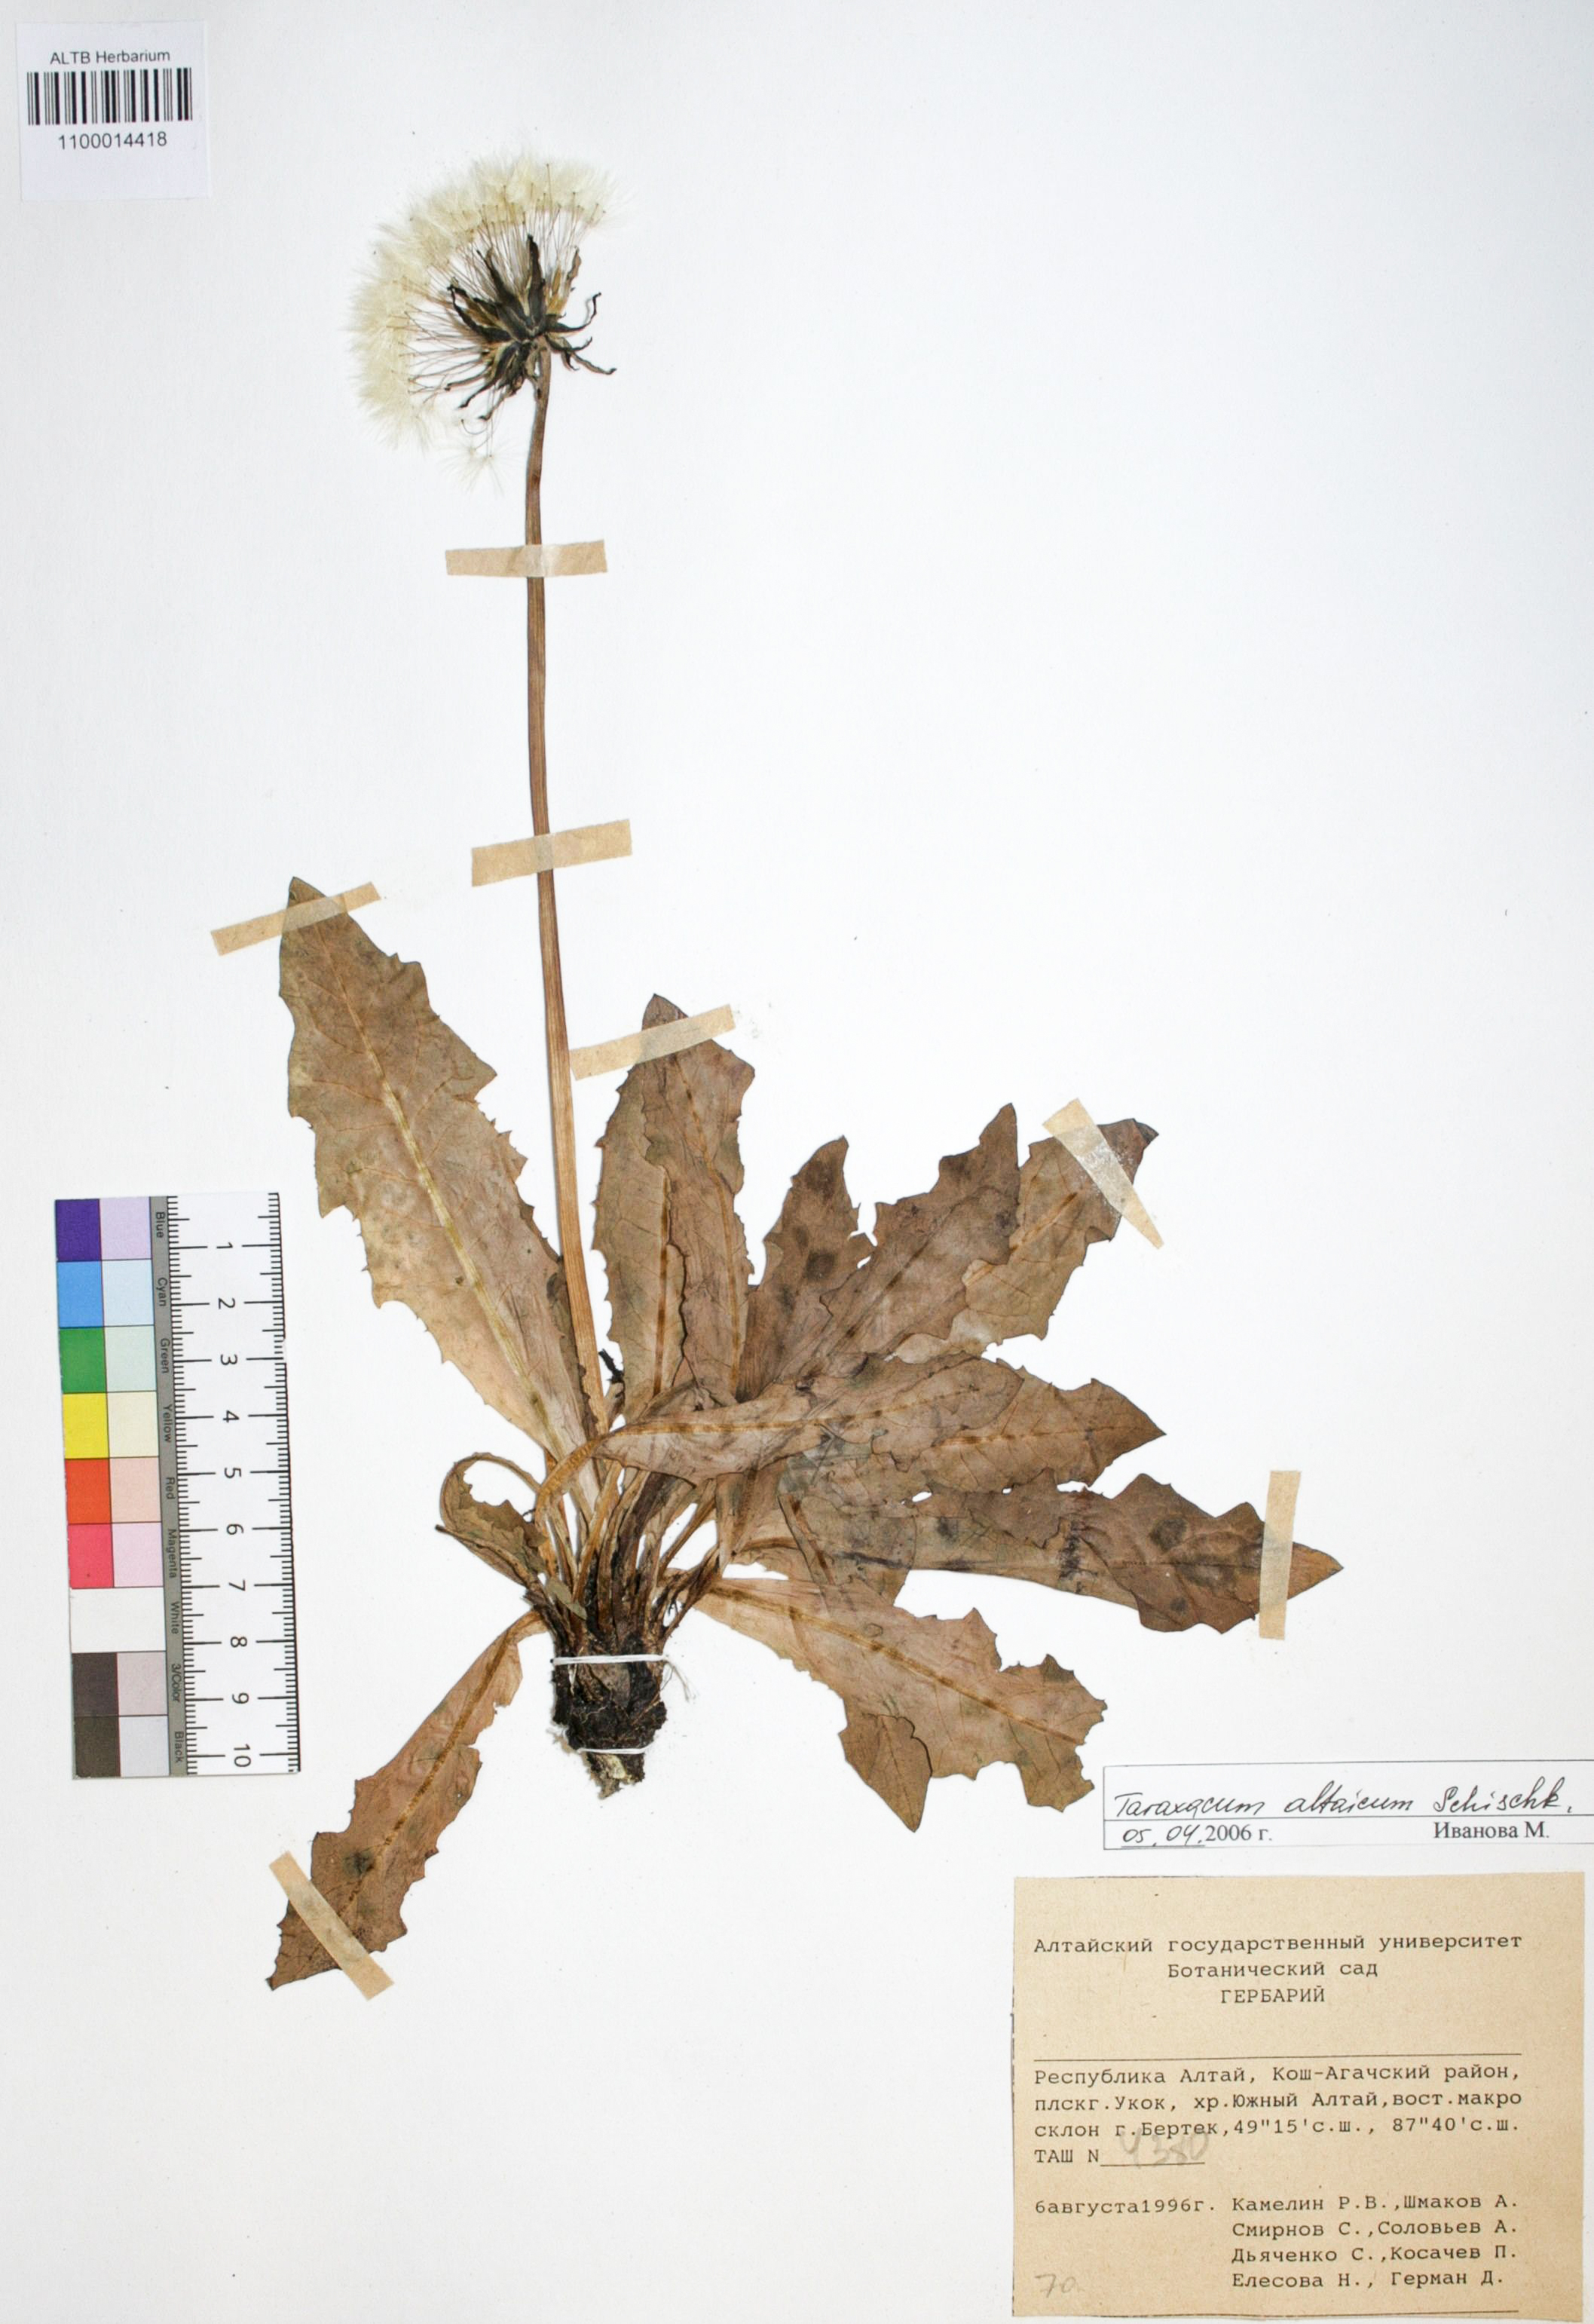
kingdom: Plantae
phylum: Tracheophyta
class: Magnoliopsida
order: Asterales
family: Asteraceae
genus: Taraxacum
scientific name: Taraxacum officinale
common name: Common dandelion
